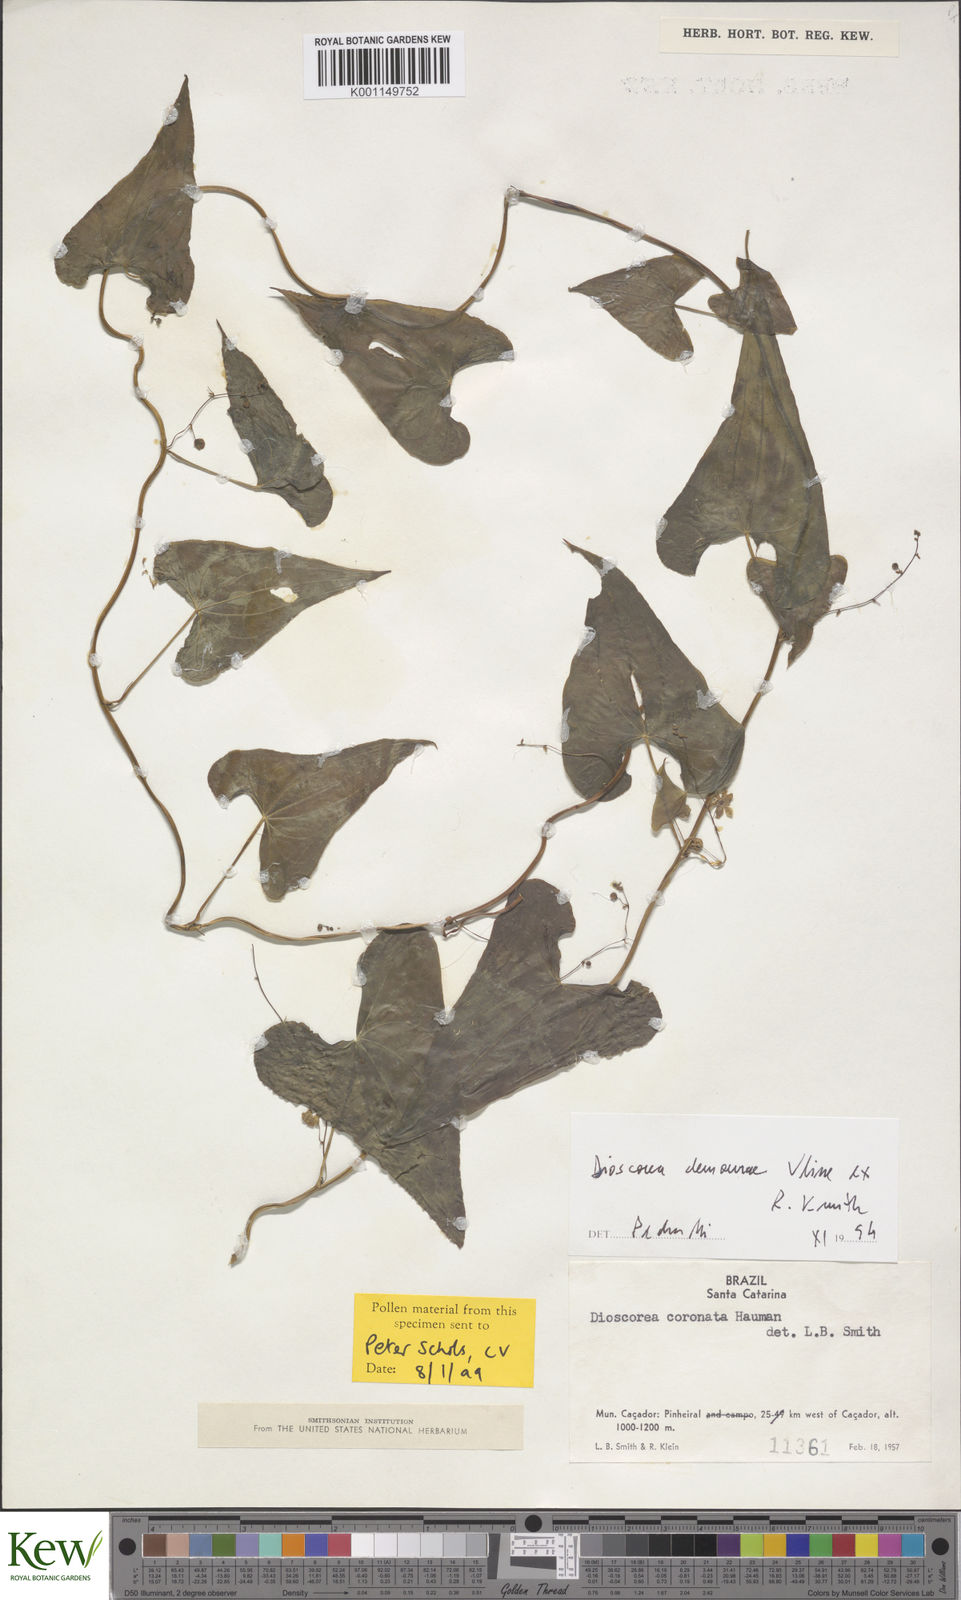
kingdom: Plantae
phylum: Tracheophyta
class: Liliopsida
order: Dioscoreales
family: Dioscoreaceae
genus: Dioscorea
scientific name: Dioscorea coronata
